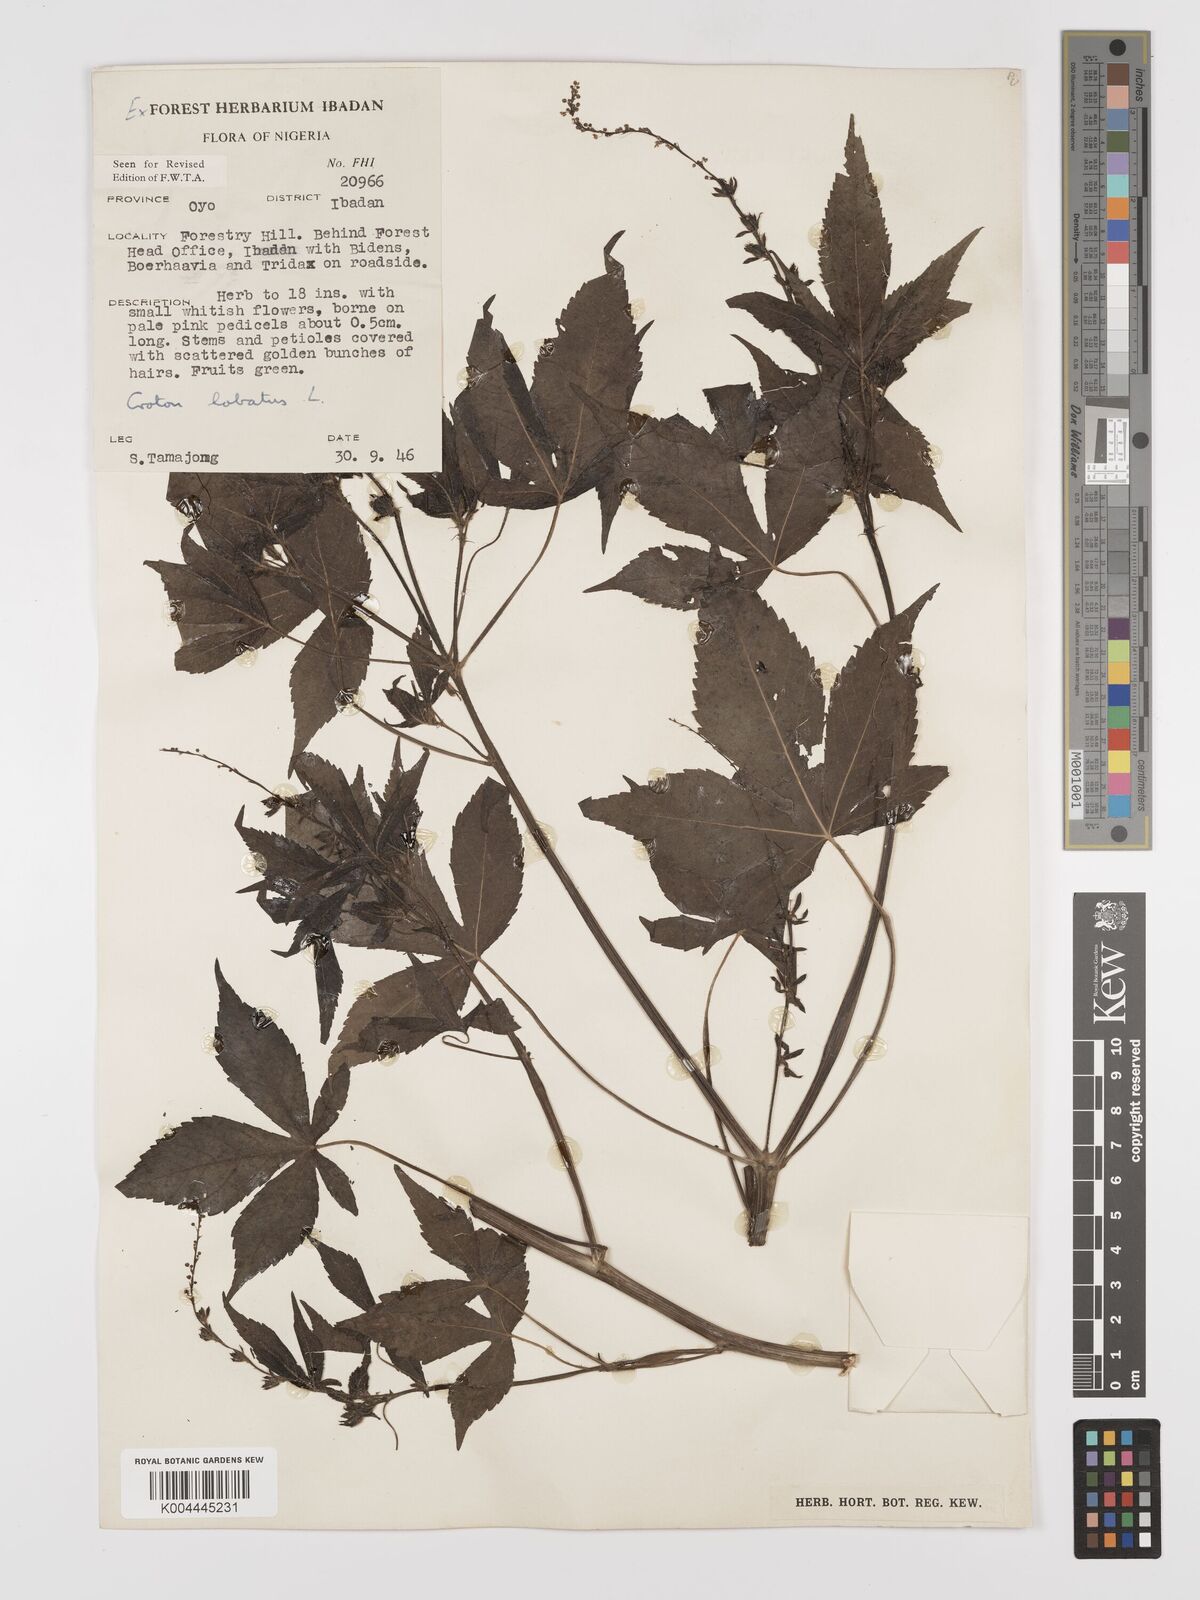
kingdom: Plantae
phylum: Tracheophyta
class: Magnoliopsida
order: Malpighiales
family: Euphorbiaceae
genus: Astraea
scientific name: Astraea lobata
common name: Lobed croton
